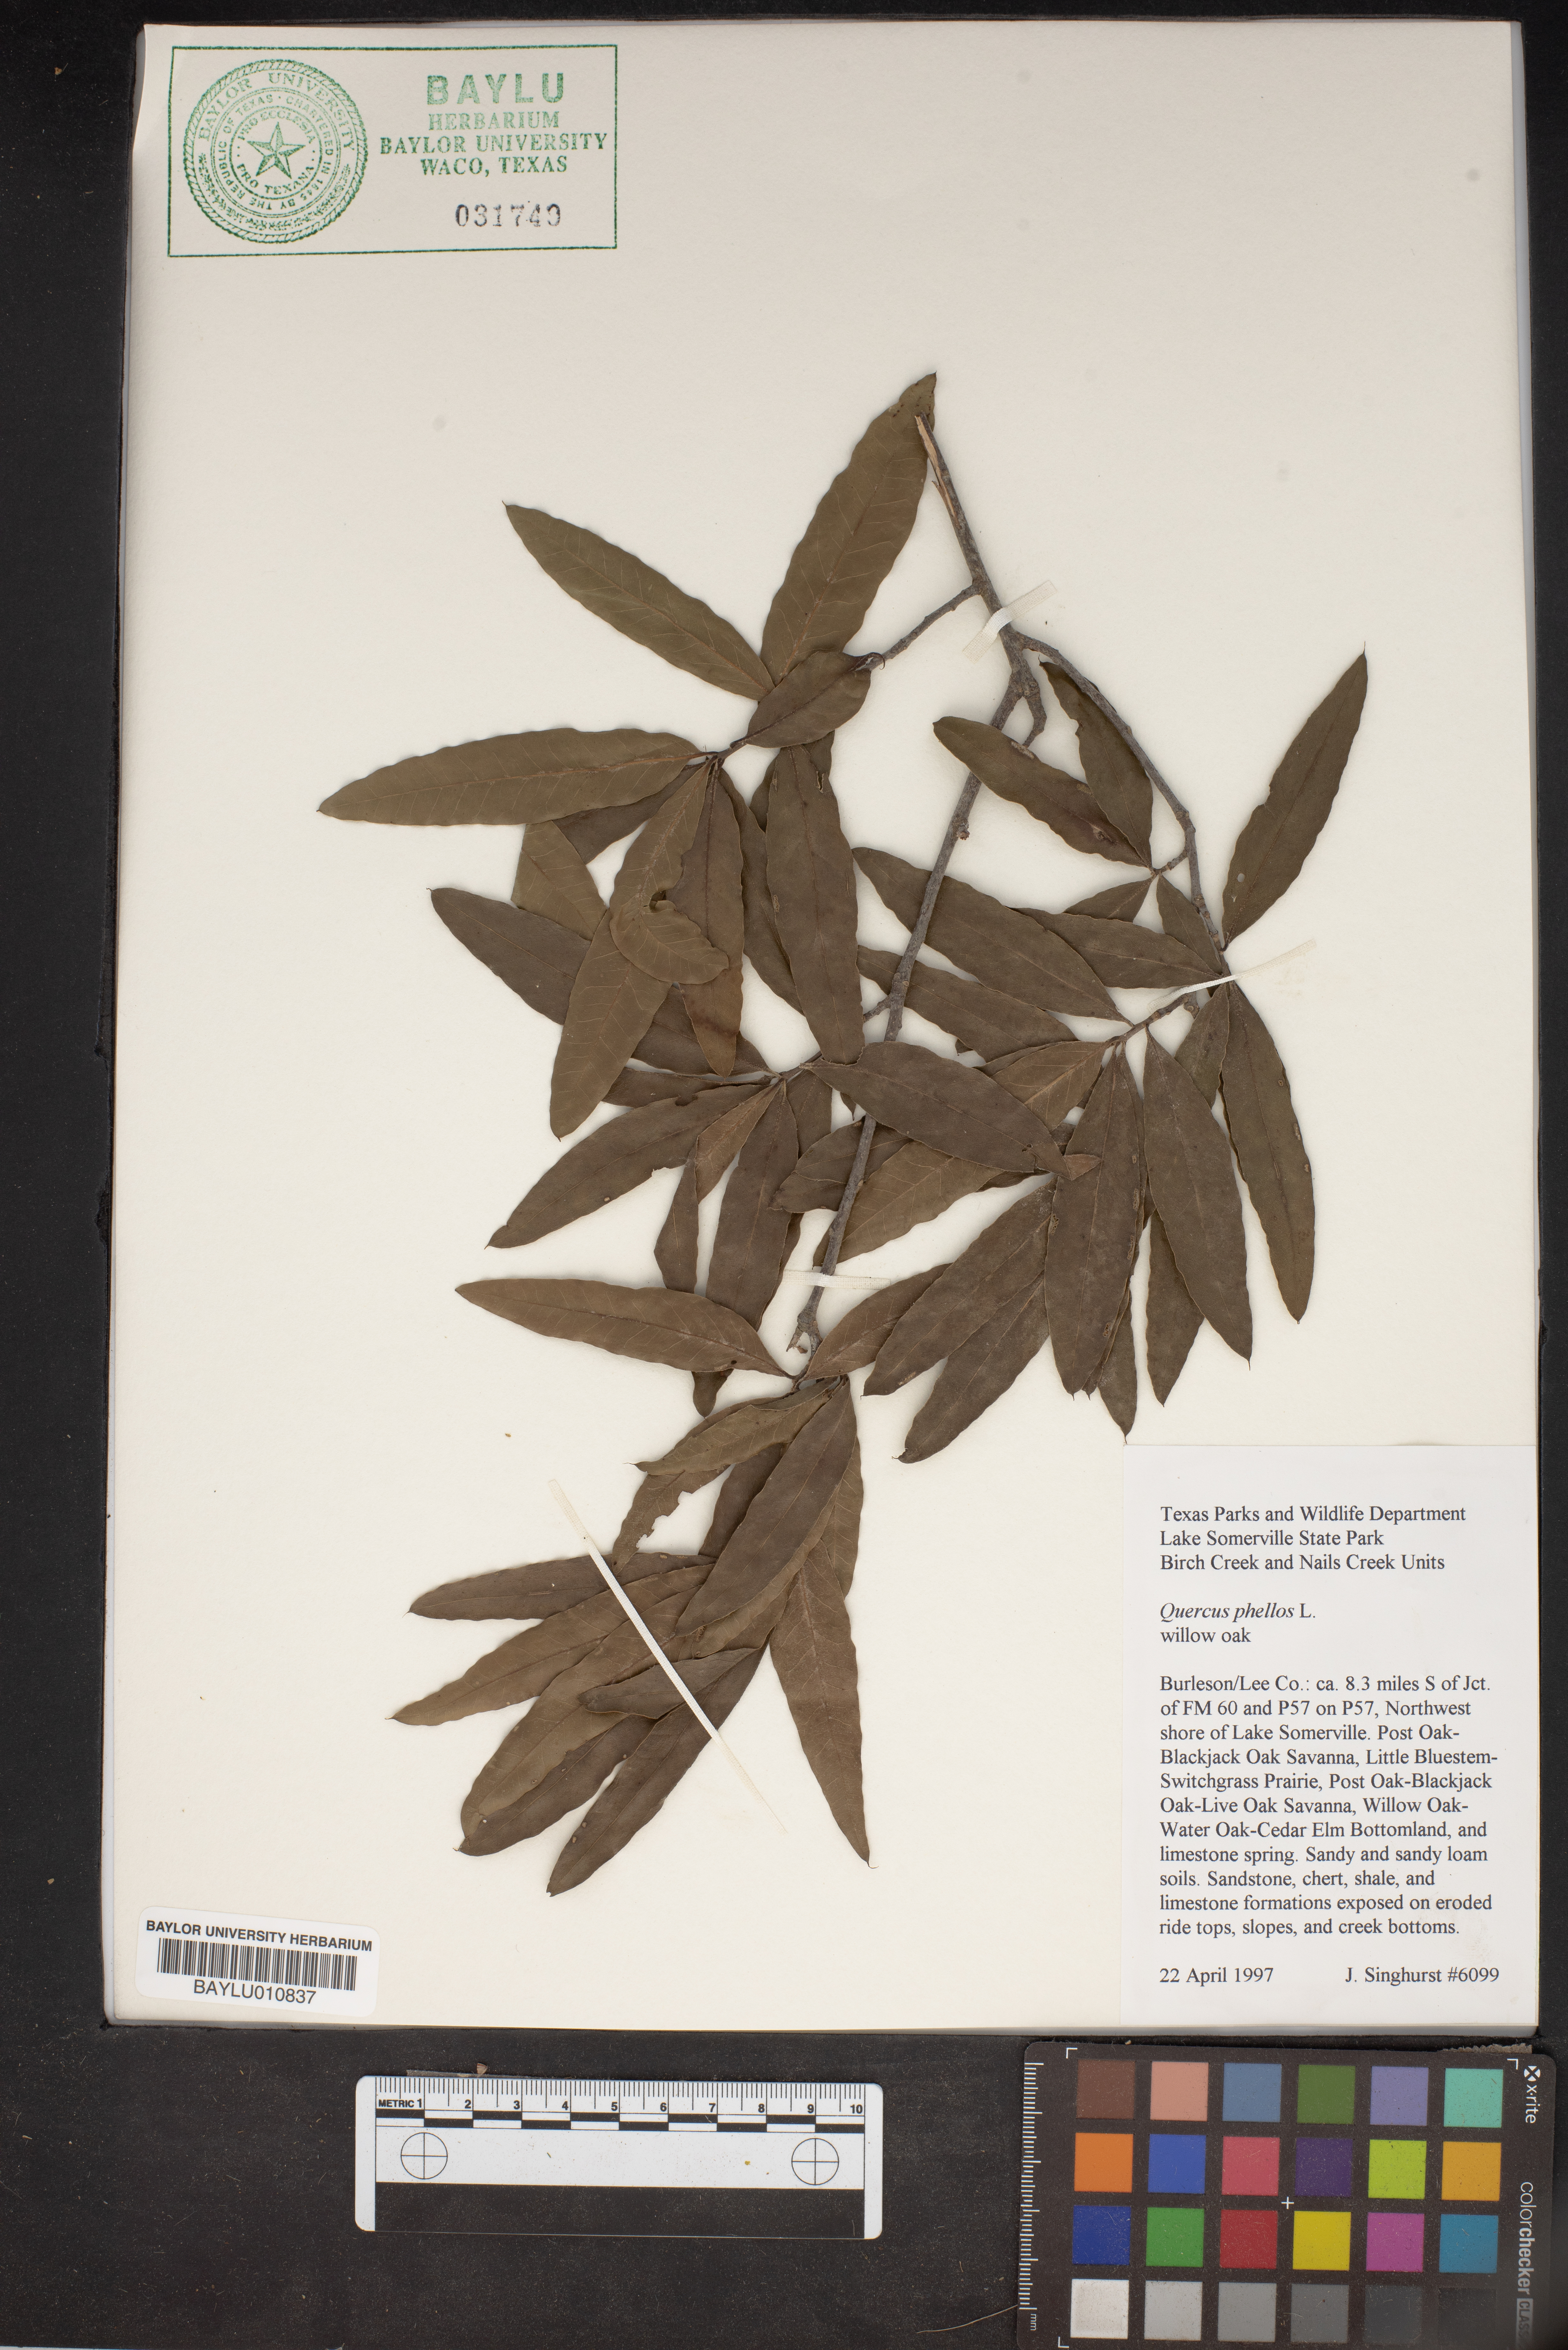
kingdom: Plantae
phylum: Tracheophyta
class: Magnoliopsida
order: Fagales
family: Fagaceae
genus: Quercus
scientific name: Quercus phellos
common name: Willow oak
